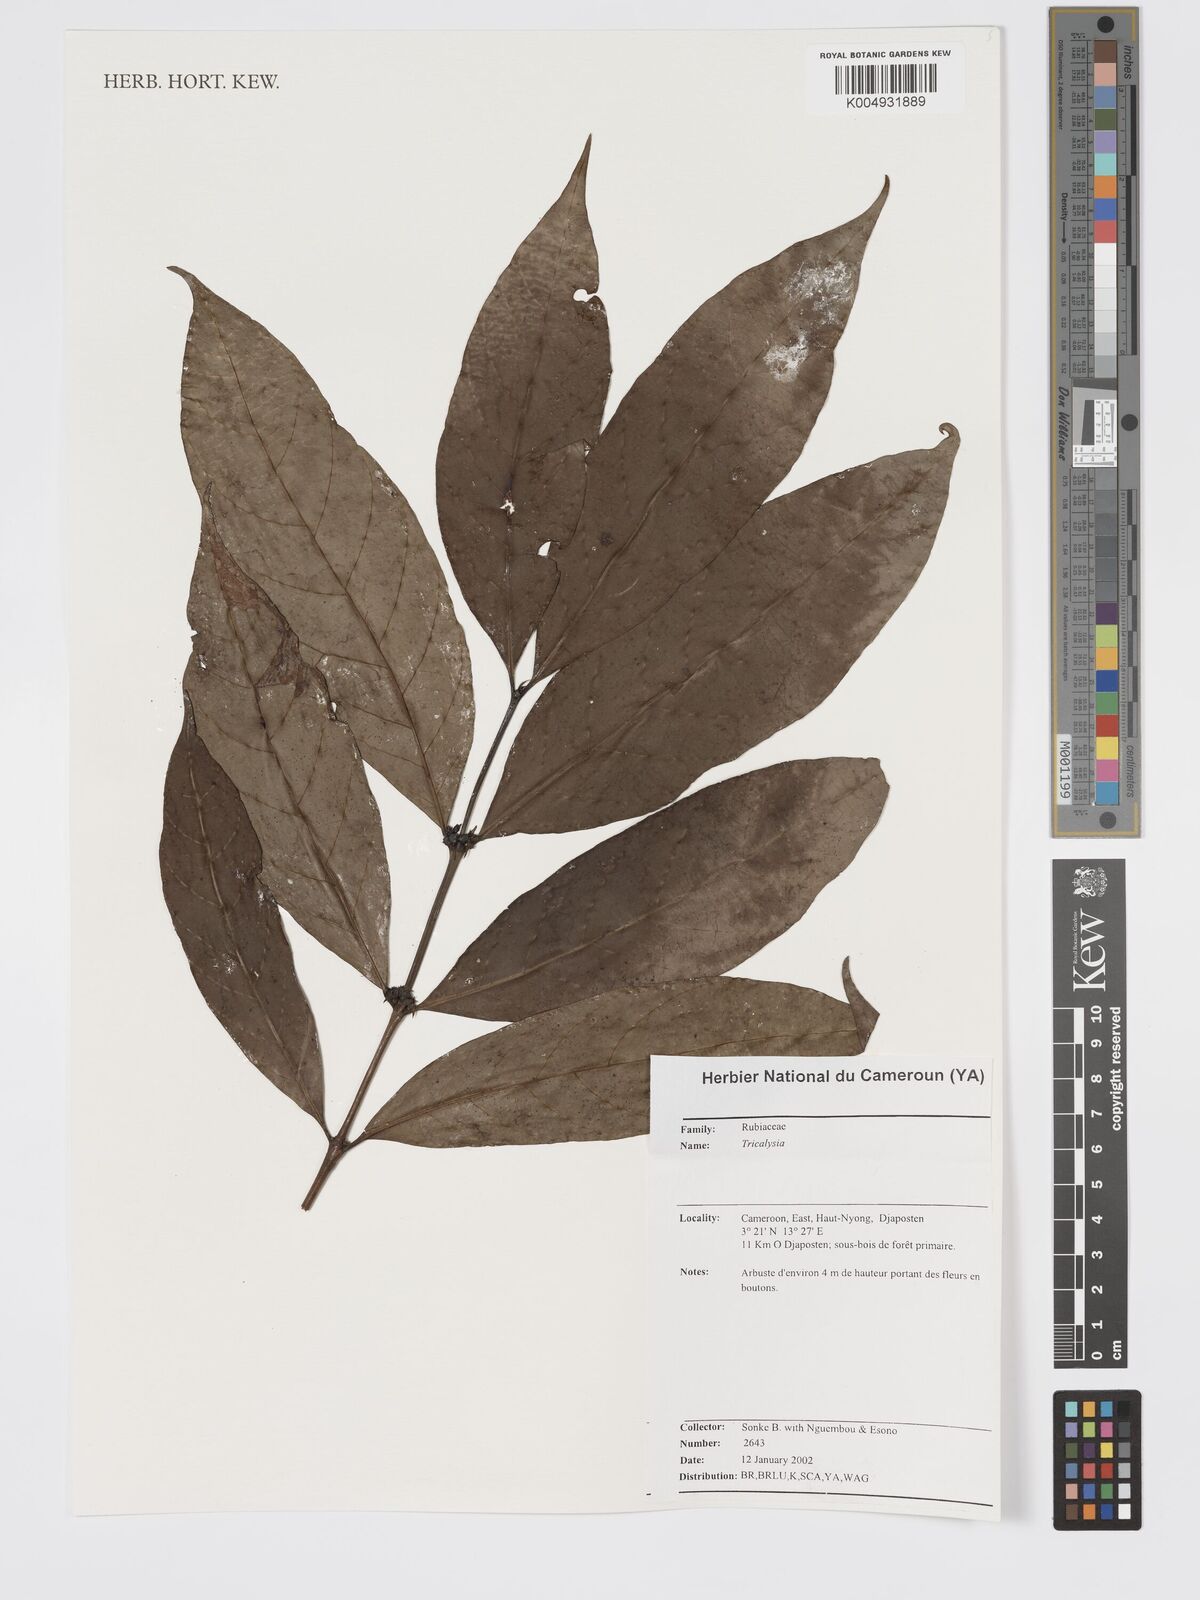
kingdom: Plantae
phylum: Tracheophyta
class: Magnoliopsida
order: Gentianales
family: Rubiaceae
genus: Tricalysia
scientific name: Tricalysia
